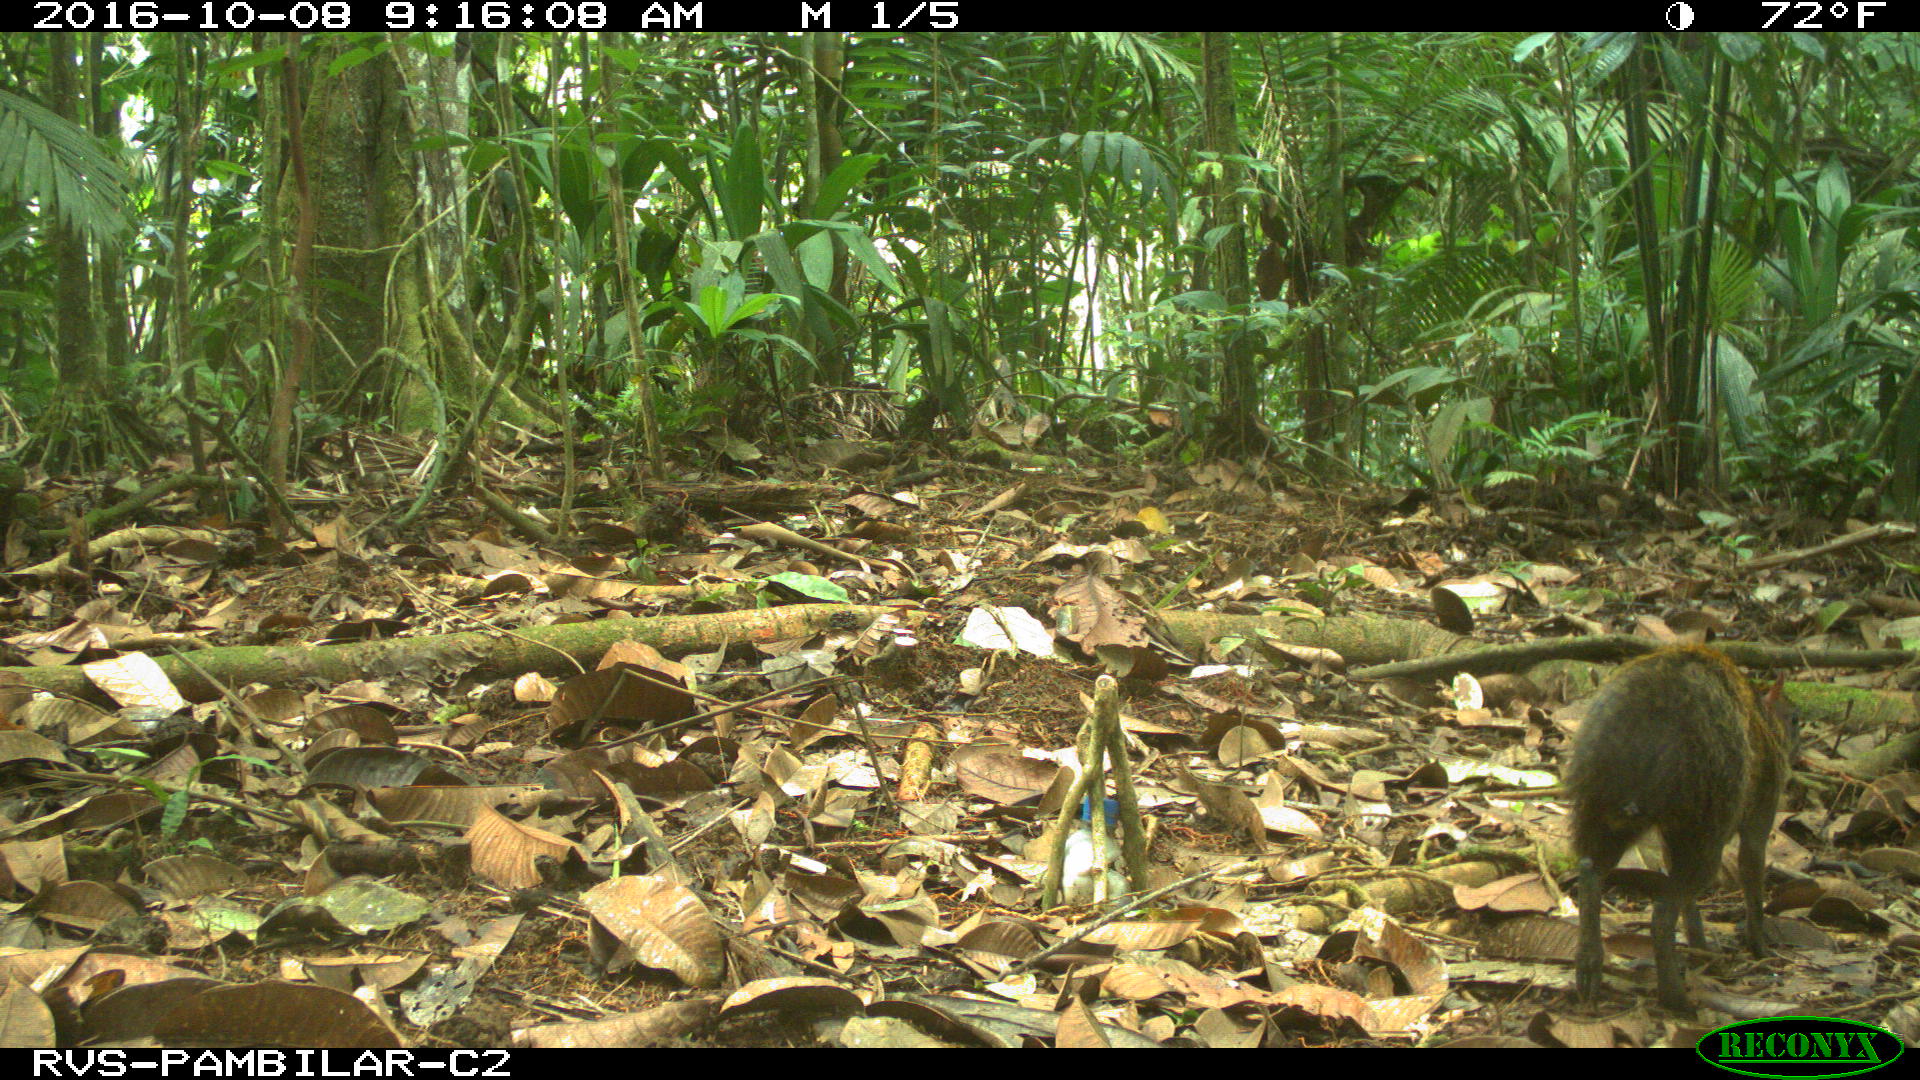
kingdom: Animalia
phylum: Chordata
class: Mammalia
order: Rodentia
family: Dasyproctidae
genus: Dasyprocta
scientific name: Dasyprocta punctata
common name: Central american agouti
